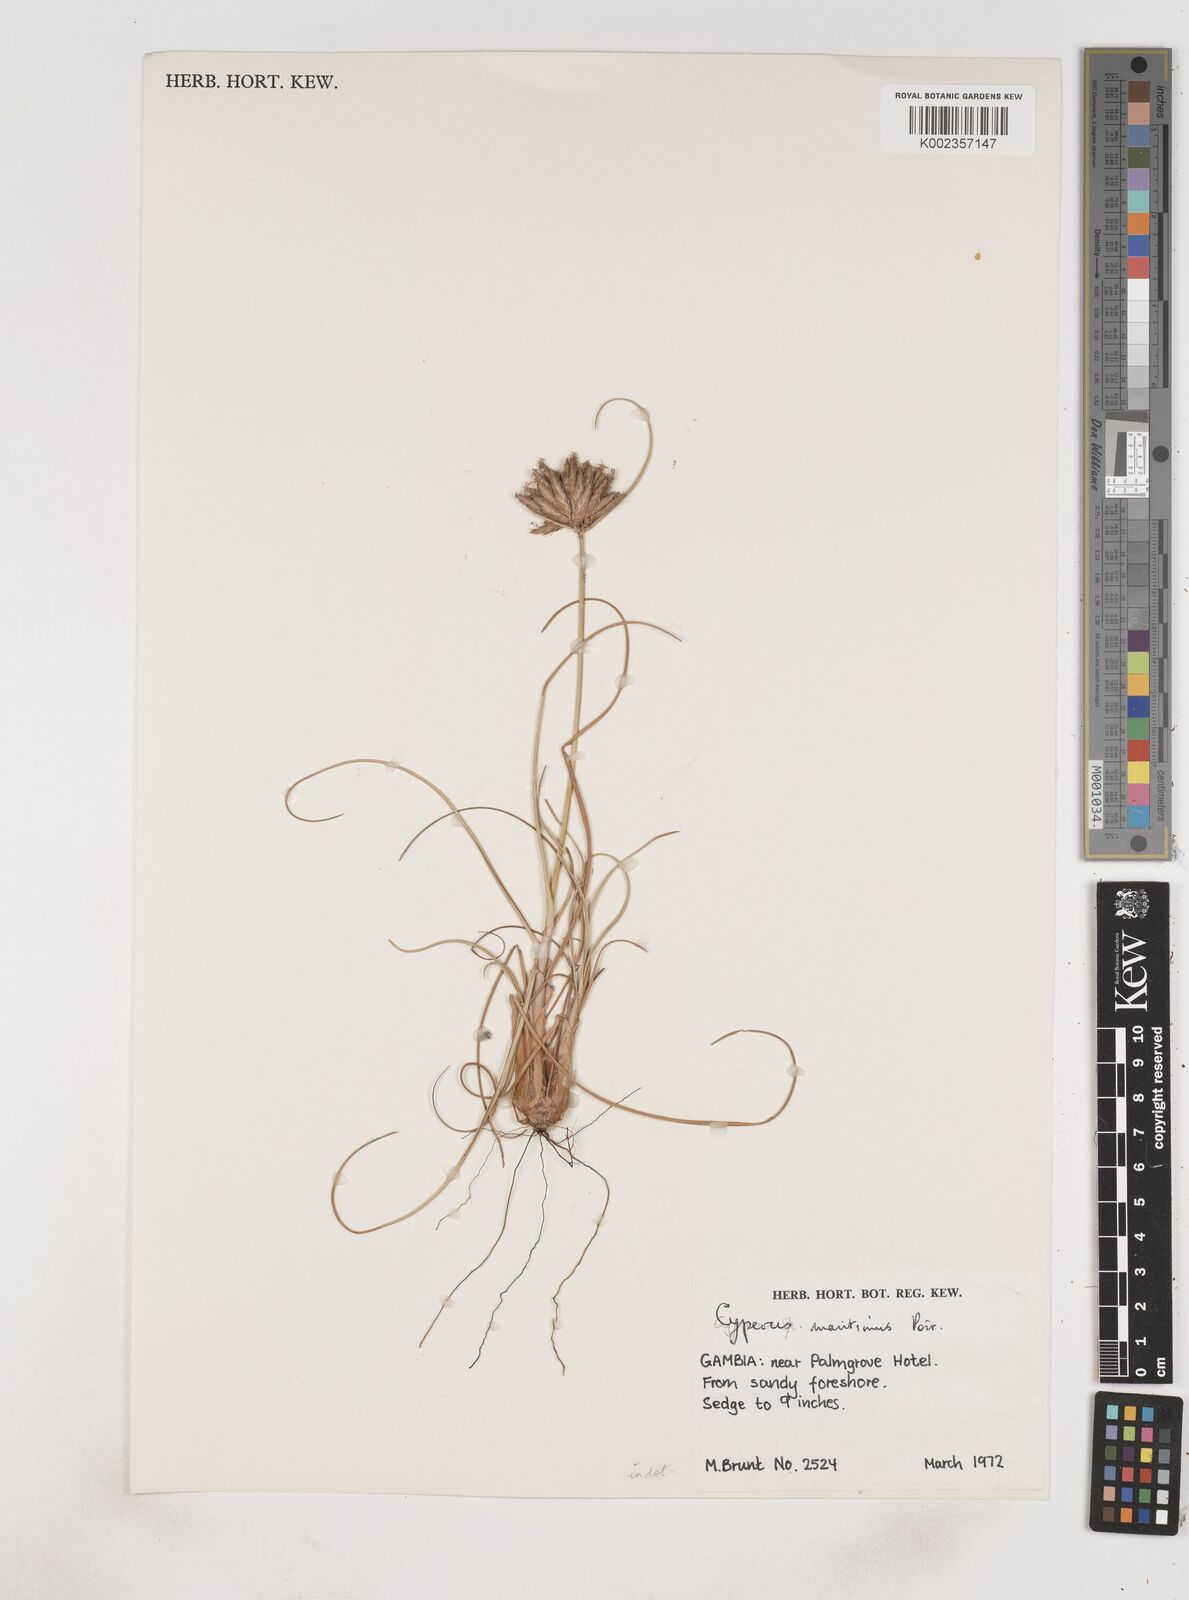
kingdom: Plantae
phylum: Tracheophyta
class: Liliopsida
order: Poales
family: Cyperaceae
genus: Cyperus
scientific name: Cyperus crassipes
